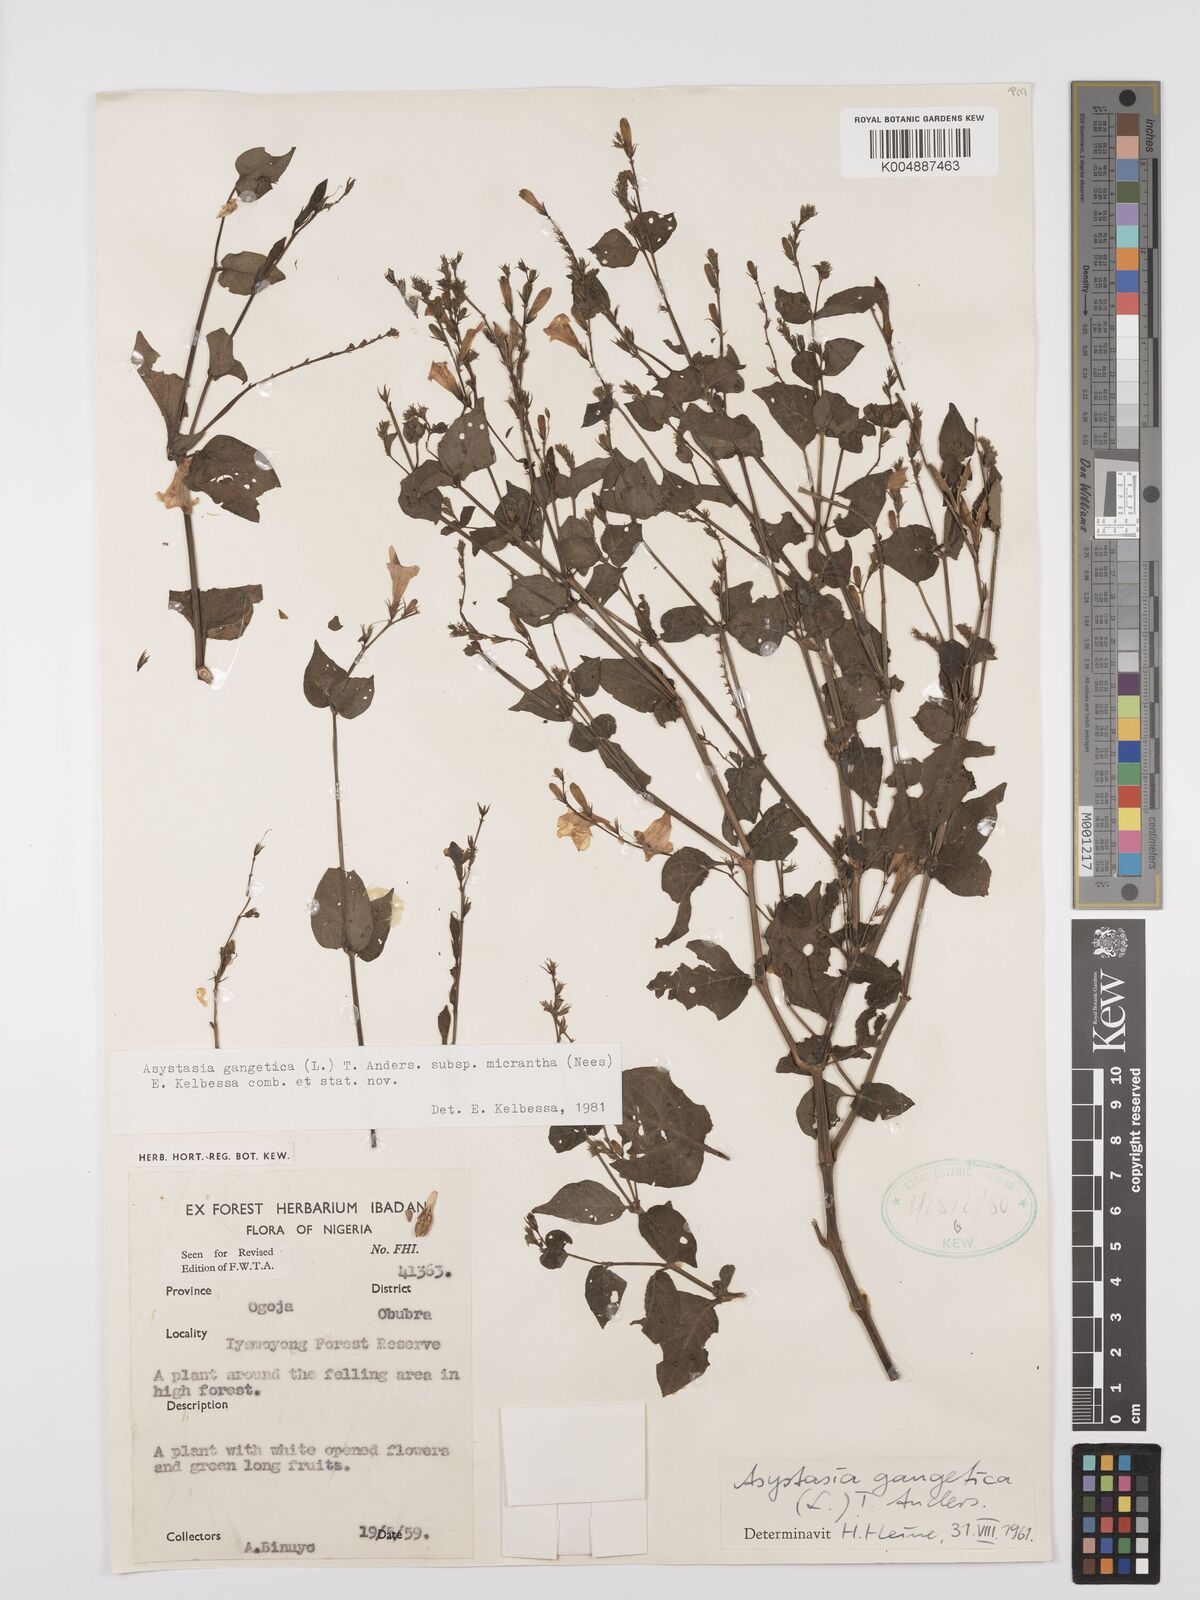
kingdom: Plantae
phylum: Tracheophyta
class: Magnoliopsida
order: Lamiales
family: Acanthaceae
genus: Asystasia
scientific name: Asystasia intrusa
